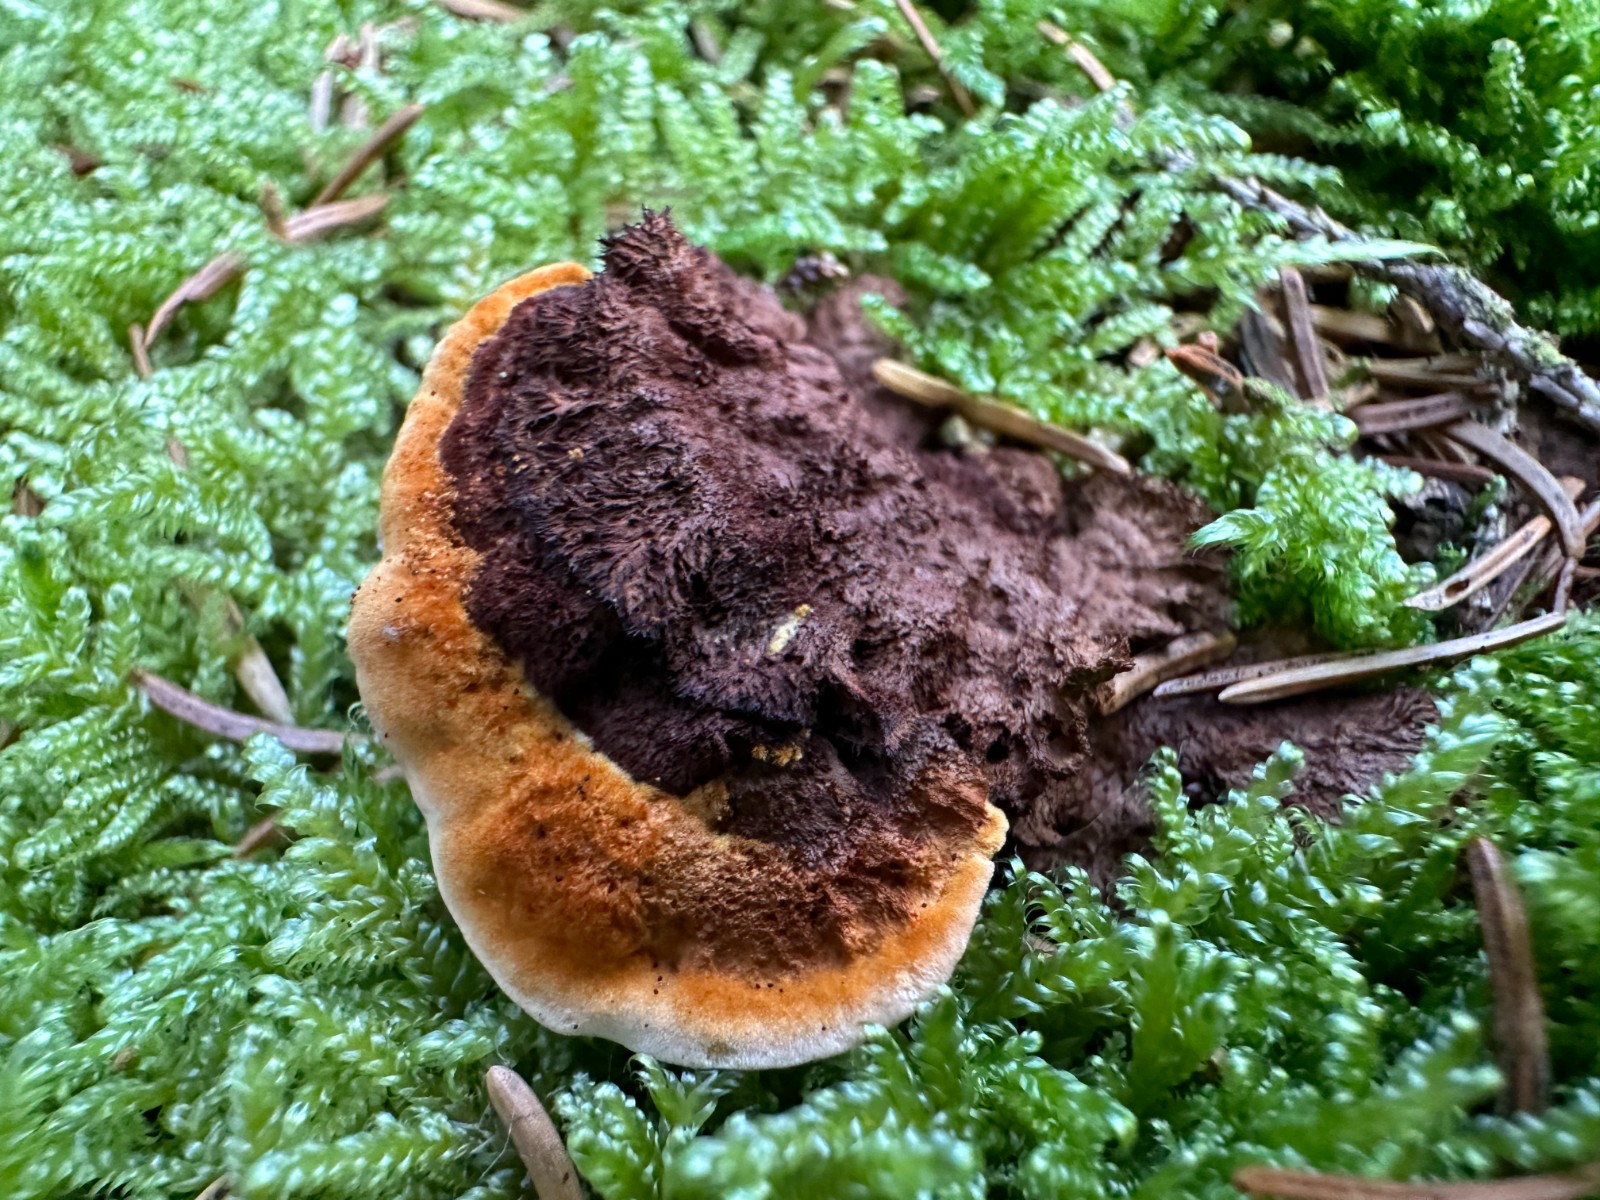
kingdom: Fungi
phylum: Basidiomycota
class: Agaricomycetes
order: Gloeophyllales
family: Gloeophyllaceae
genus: Gloeophyllum
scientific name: Gloeophyllum sepiarium
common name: fyrre-korkhat
